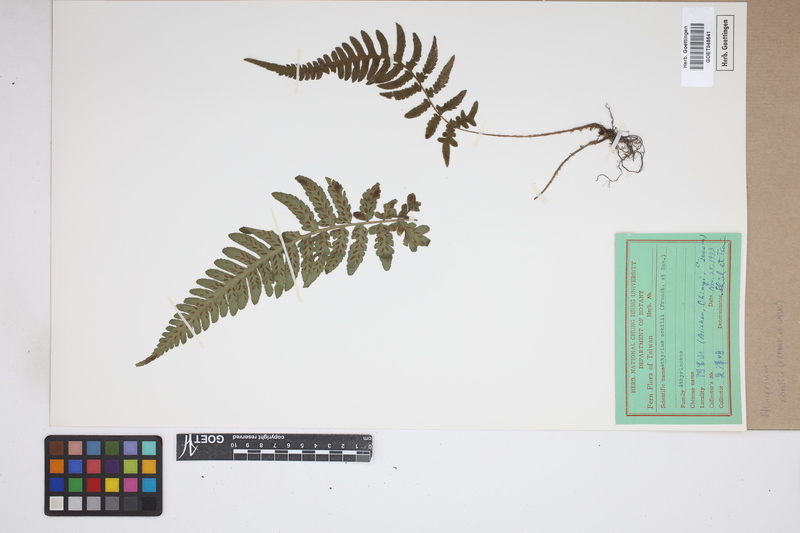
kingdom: Plantae
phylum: Tracheophyta
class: Polypodiopsida
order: Polypodiales
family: Athyriaceae
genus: Deparia
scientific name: Deparia conilii
